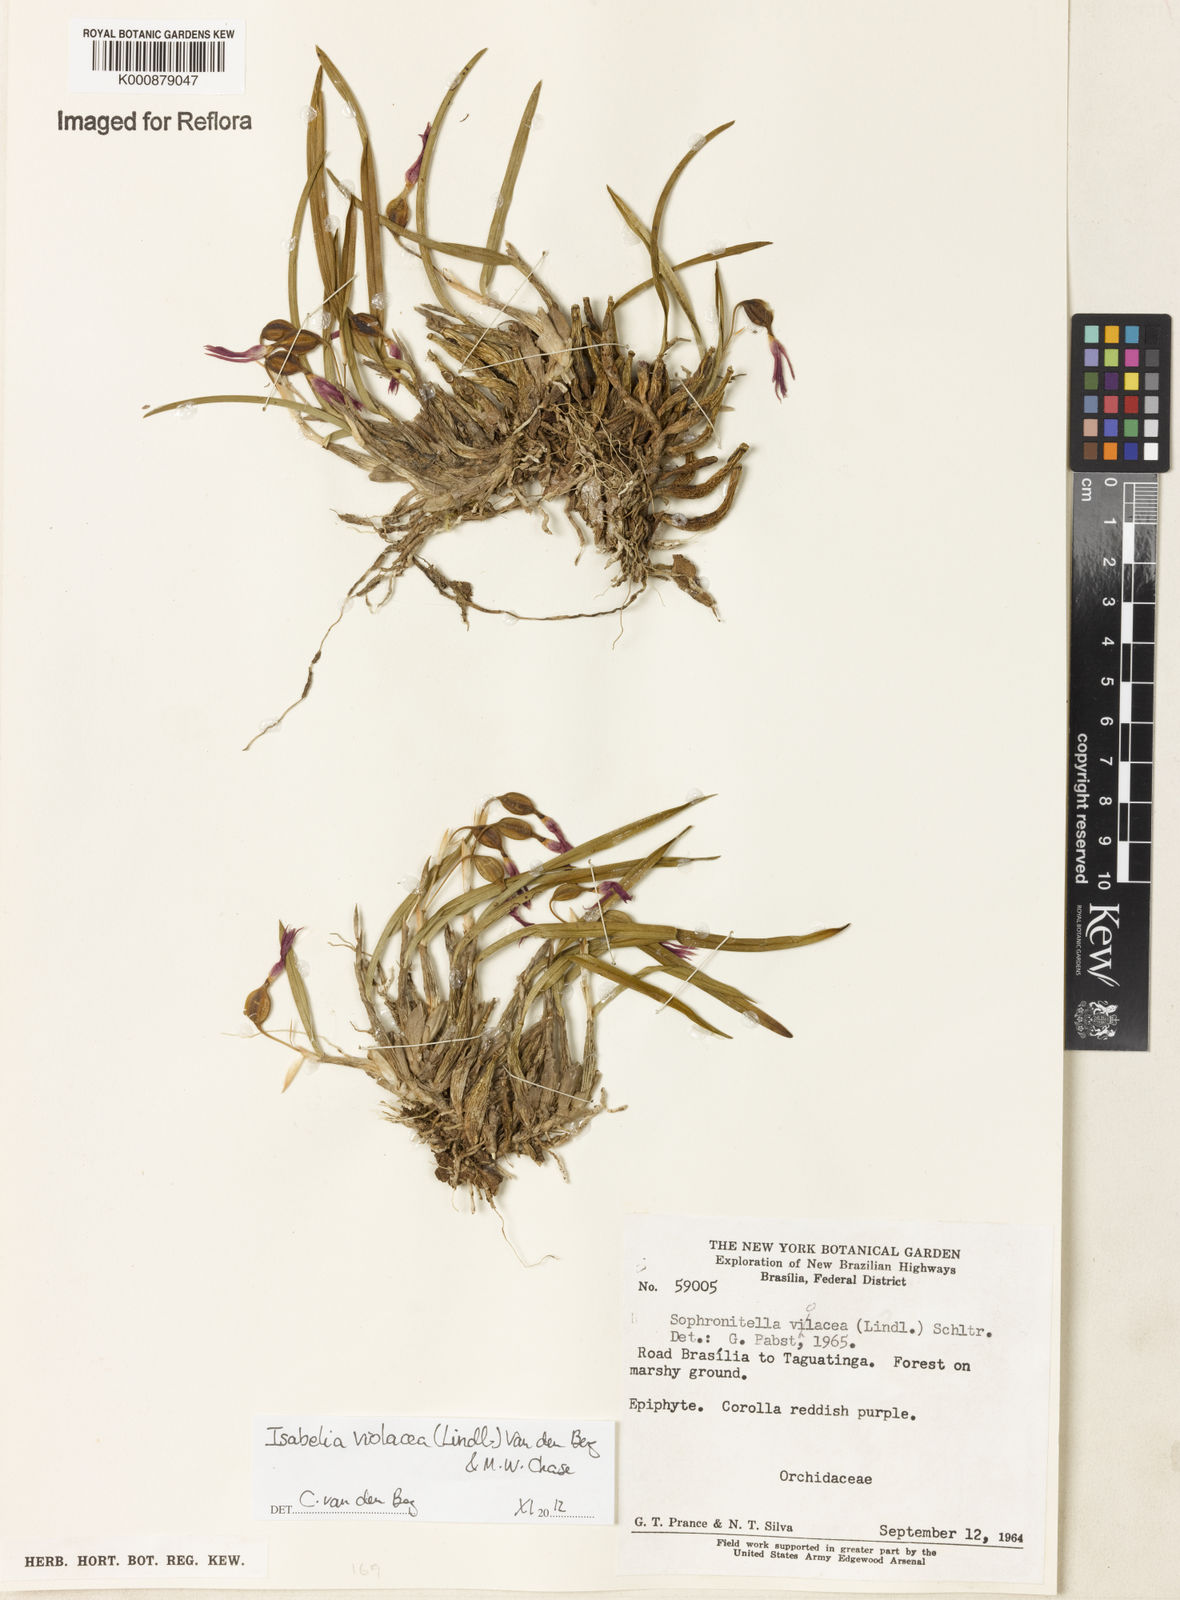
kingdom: Plantae
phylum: Tracheophyta
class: Liliopsida
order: Asparagales
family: Orchidaceae
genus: Isabelia
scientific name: Isabelia
